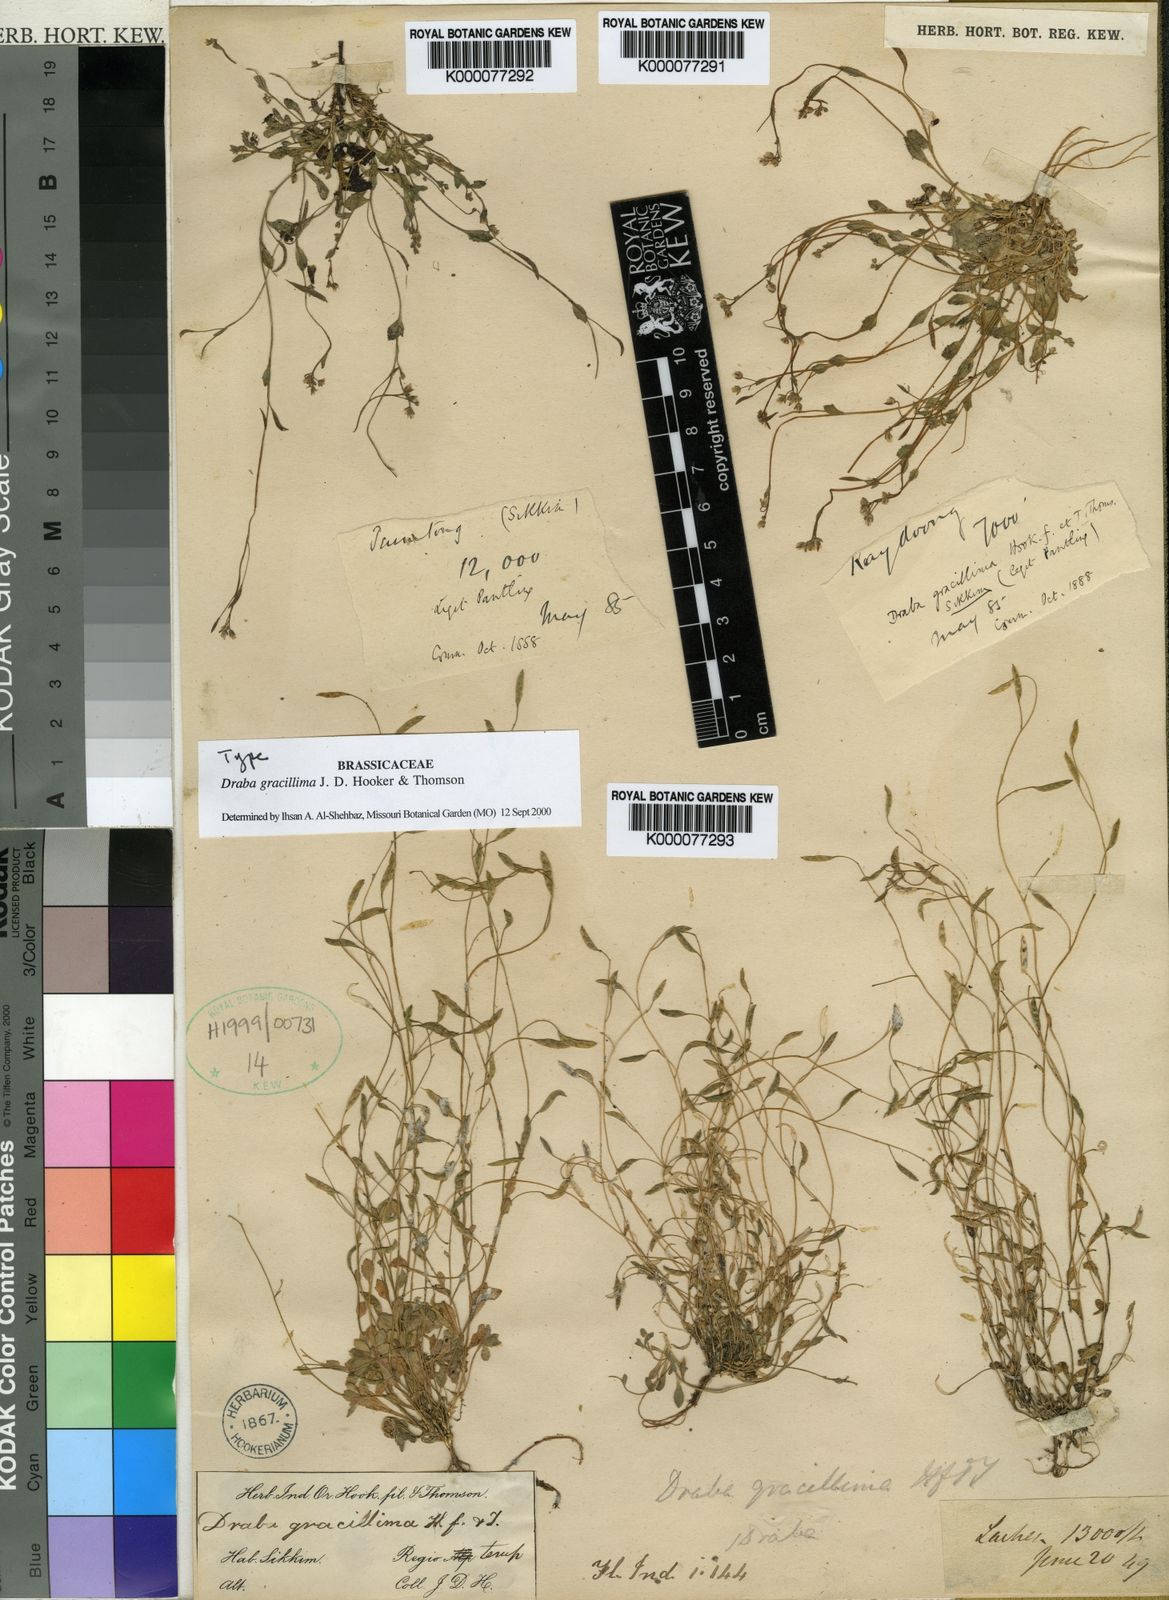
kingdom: Plantae
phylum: Tracheophyta
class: Magnoliopsida
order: Brassicales
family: Brassicaceae
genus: Draba
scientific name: Draba gracillima
